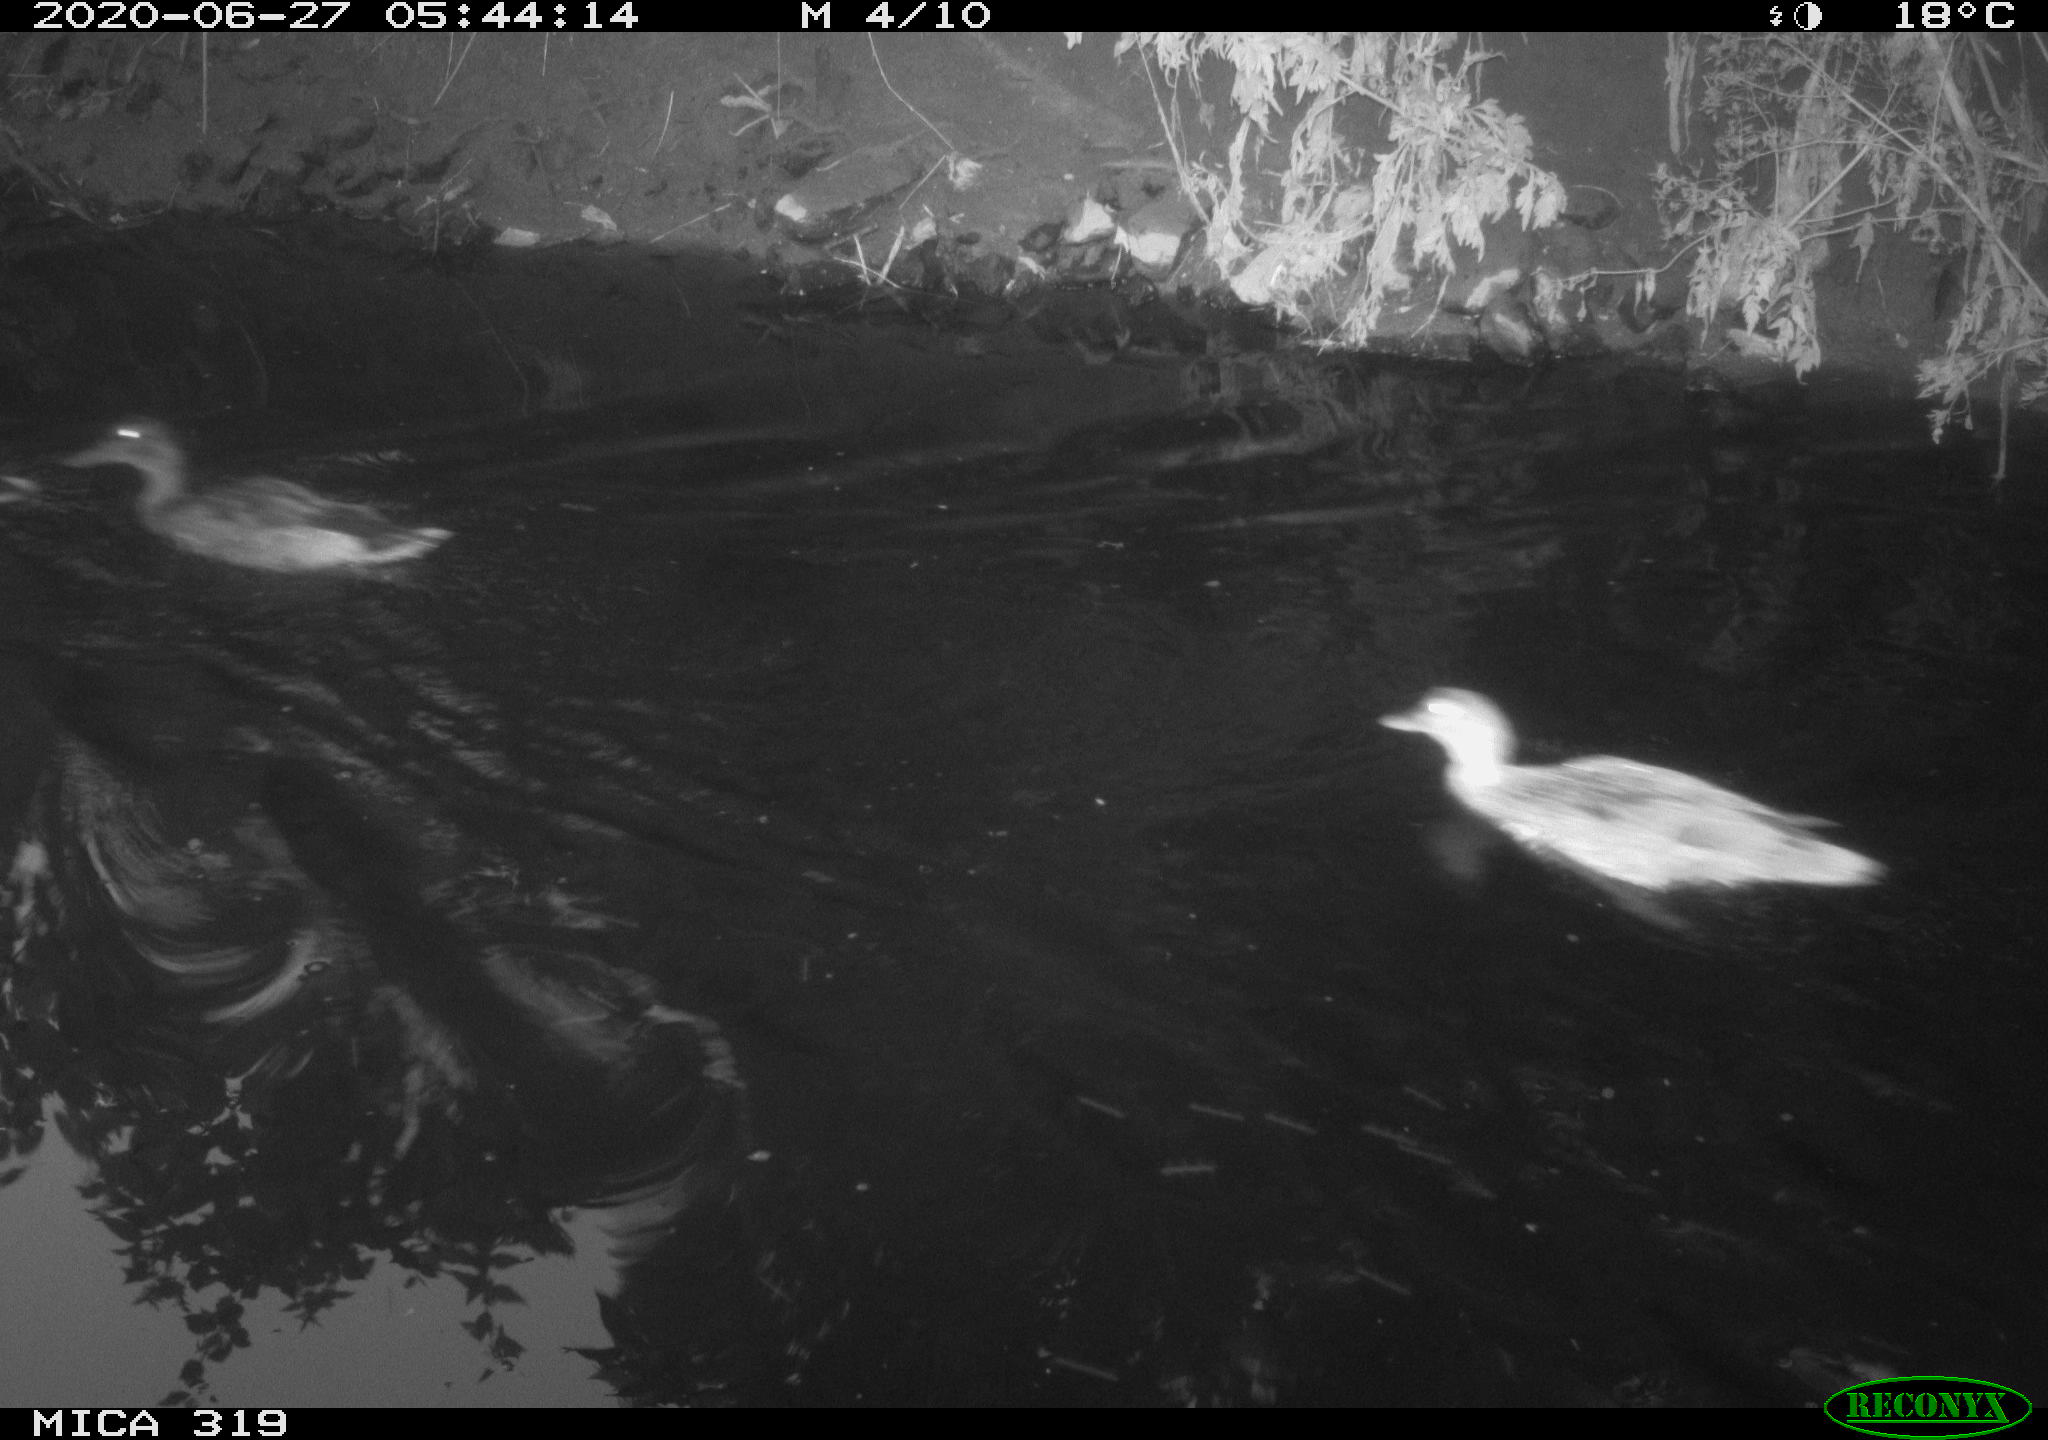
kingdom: Animalia
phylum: Chordata
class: Aves
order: Anseriformes
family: Anatidae
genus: Anas
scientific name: Anas platyrhynchos
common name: Mallard
